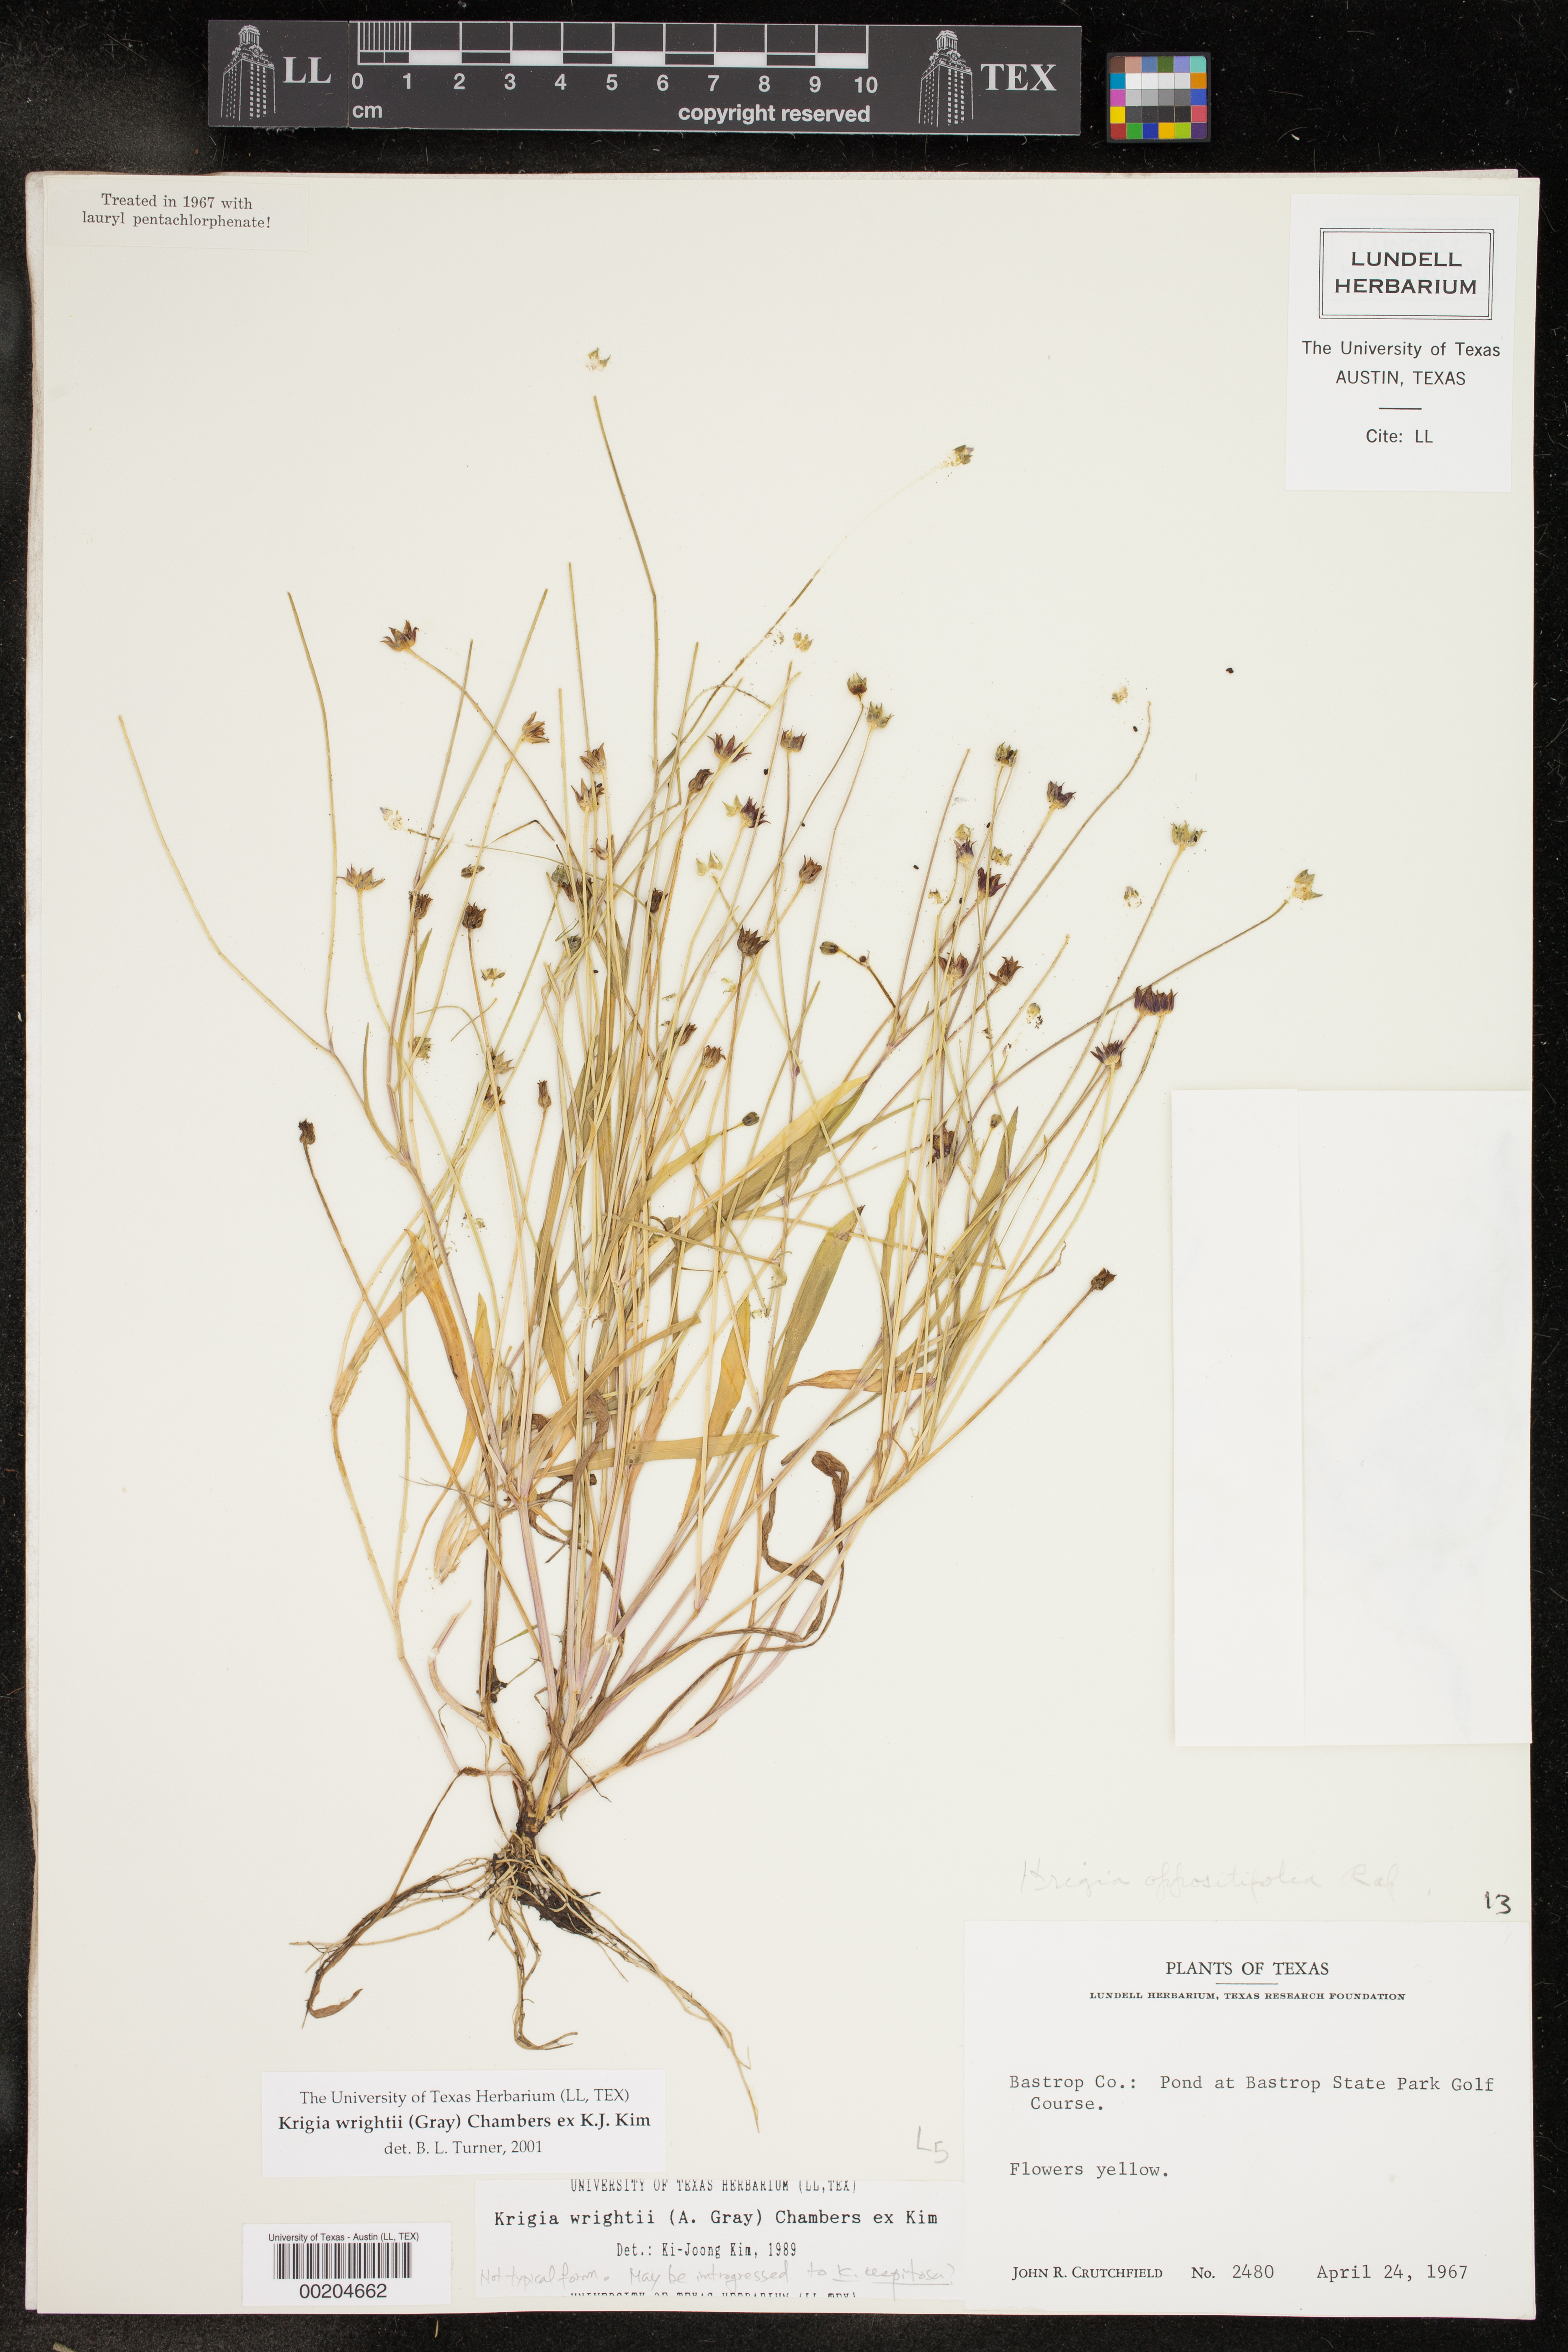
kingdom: Plantae
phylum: Tracheophyta
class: Magnoliopsida
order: Asterales
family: Asteraceae
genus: Krigia
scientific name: Krigia wrightii
